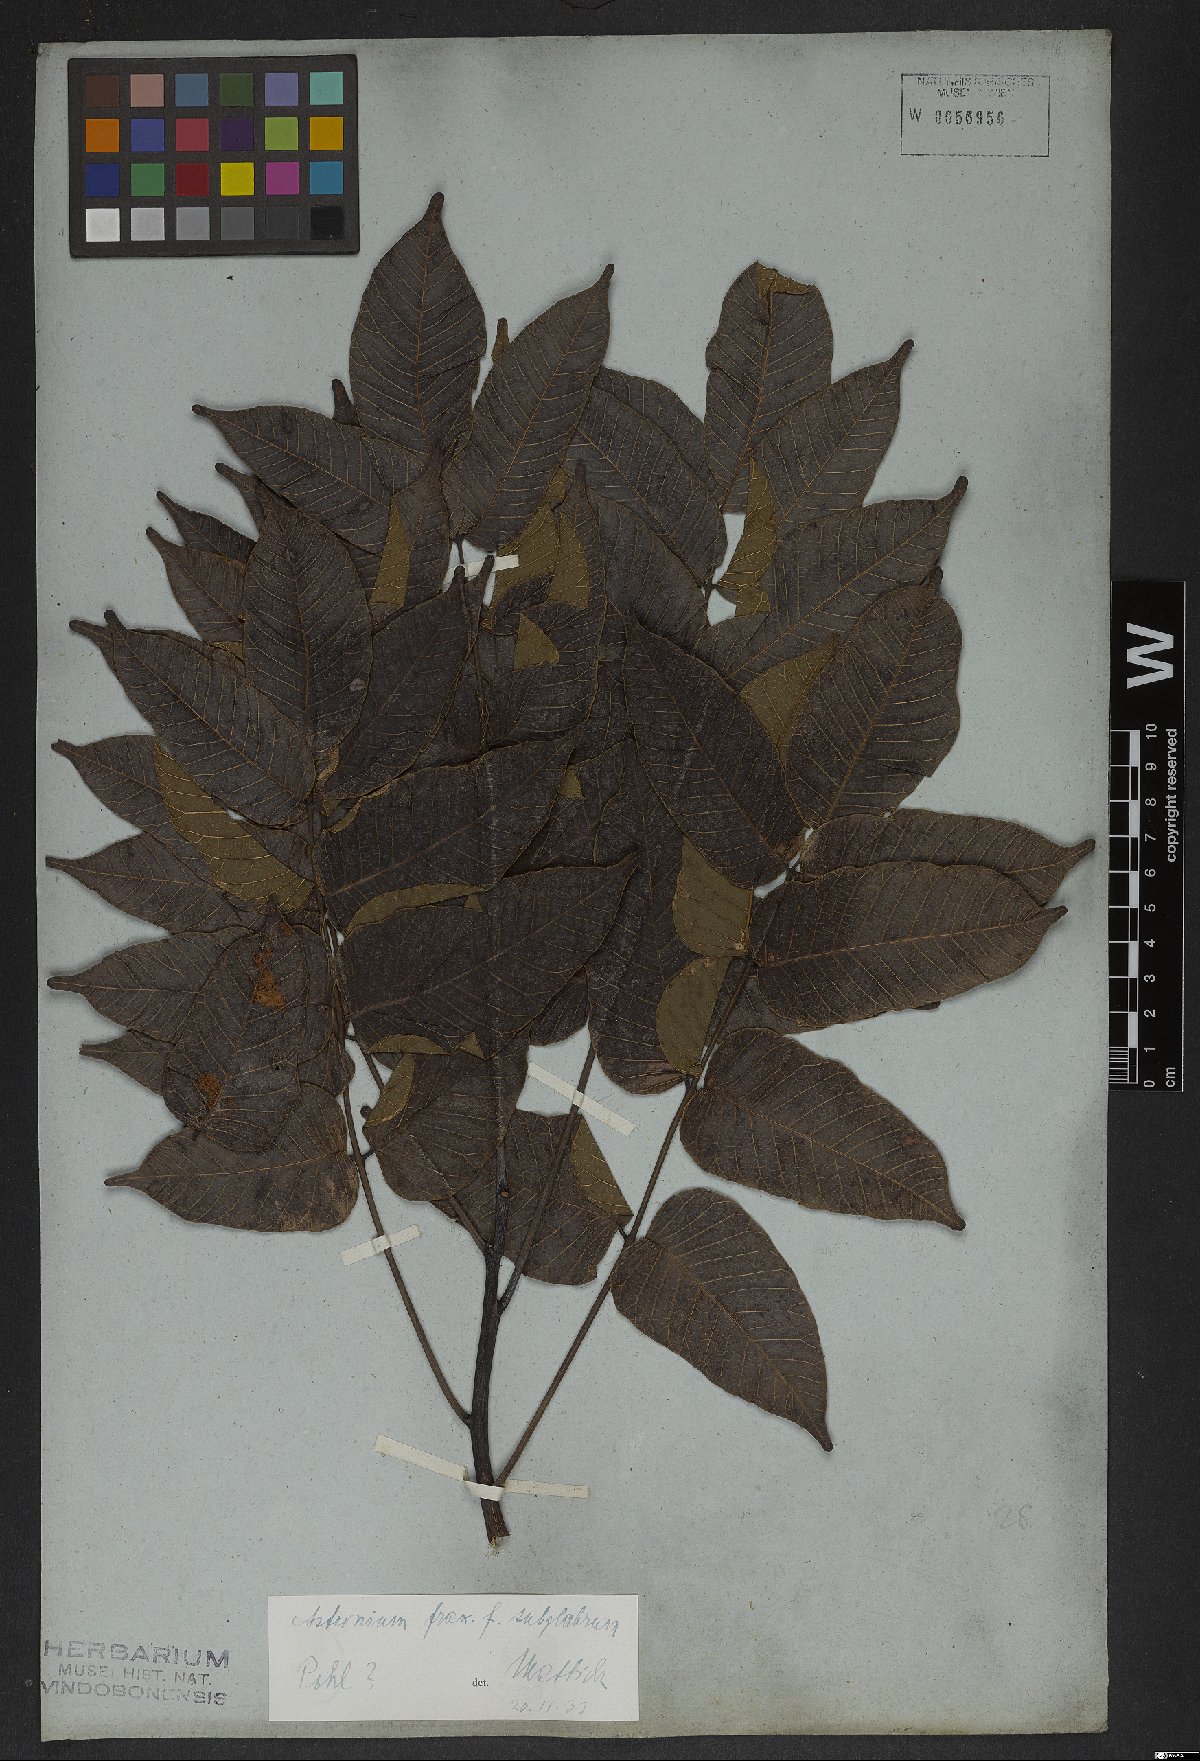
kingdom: Plantae
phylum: Tracheophyta
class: Magnoliopsida
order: Sapindales
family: Anacardiaceae
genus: Astronium
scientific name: Astronium fraxinifolium
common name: Tigerwood
